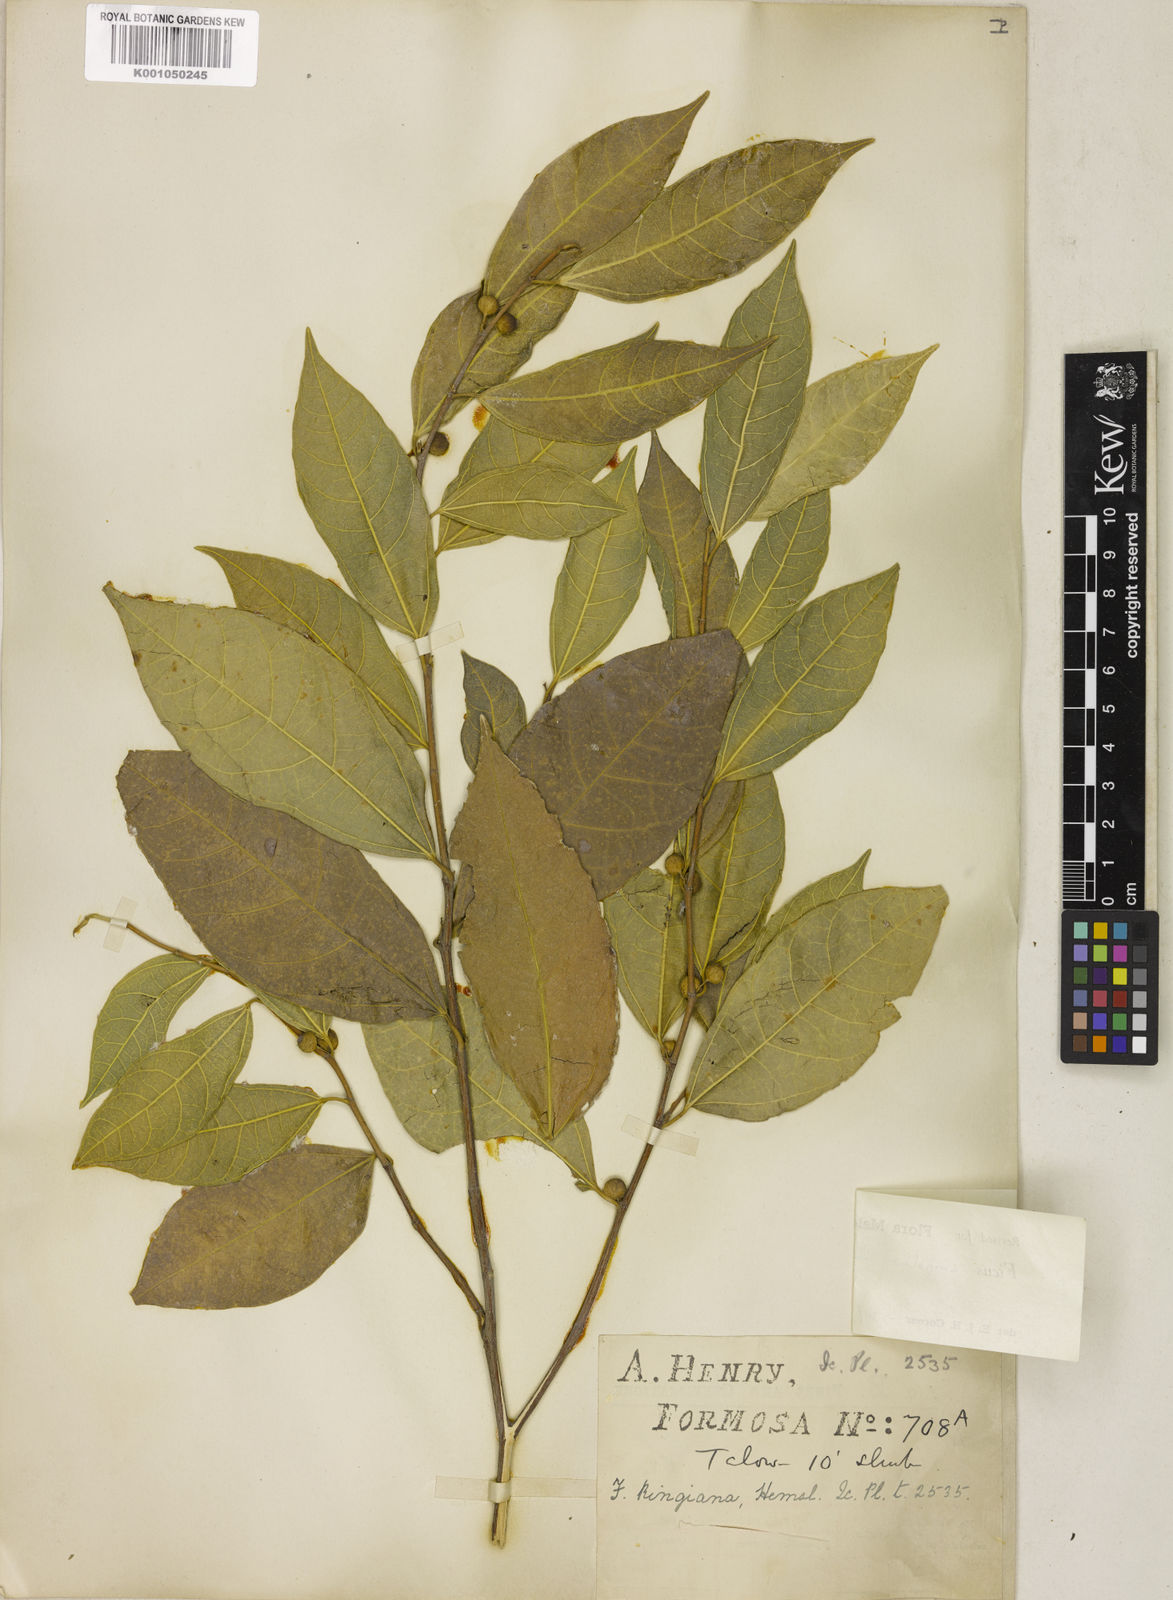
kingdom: Plantae
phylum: Tracheophyta
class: Liliopsida
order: Poales
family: Poaceae
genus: Acroceras
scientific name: Acroceras zizanioides
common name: Oat grass
